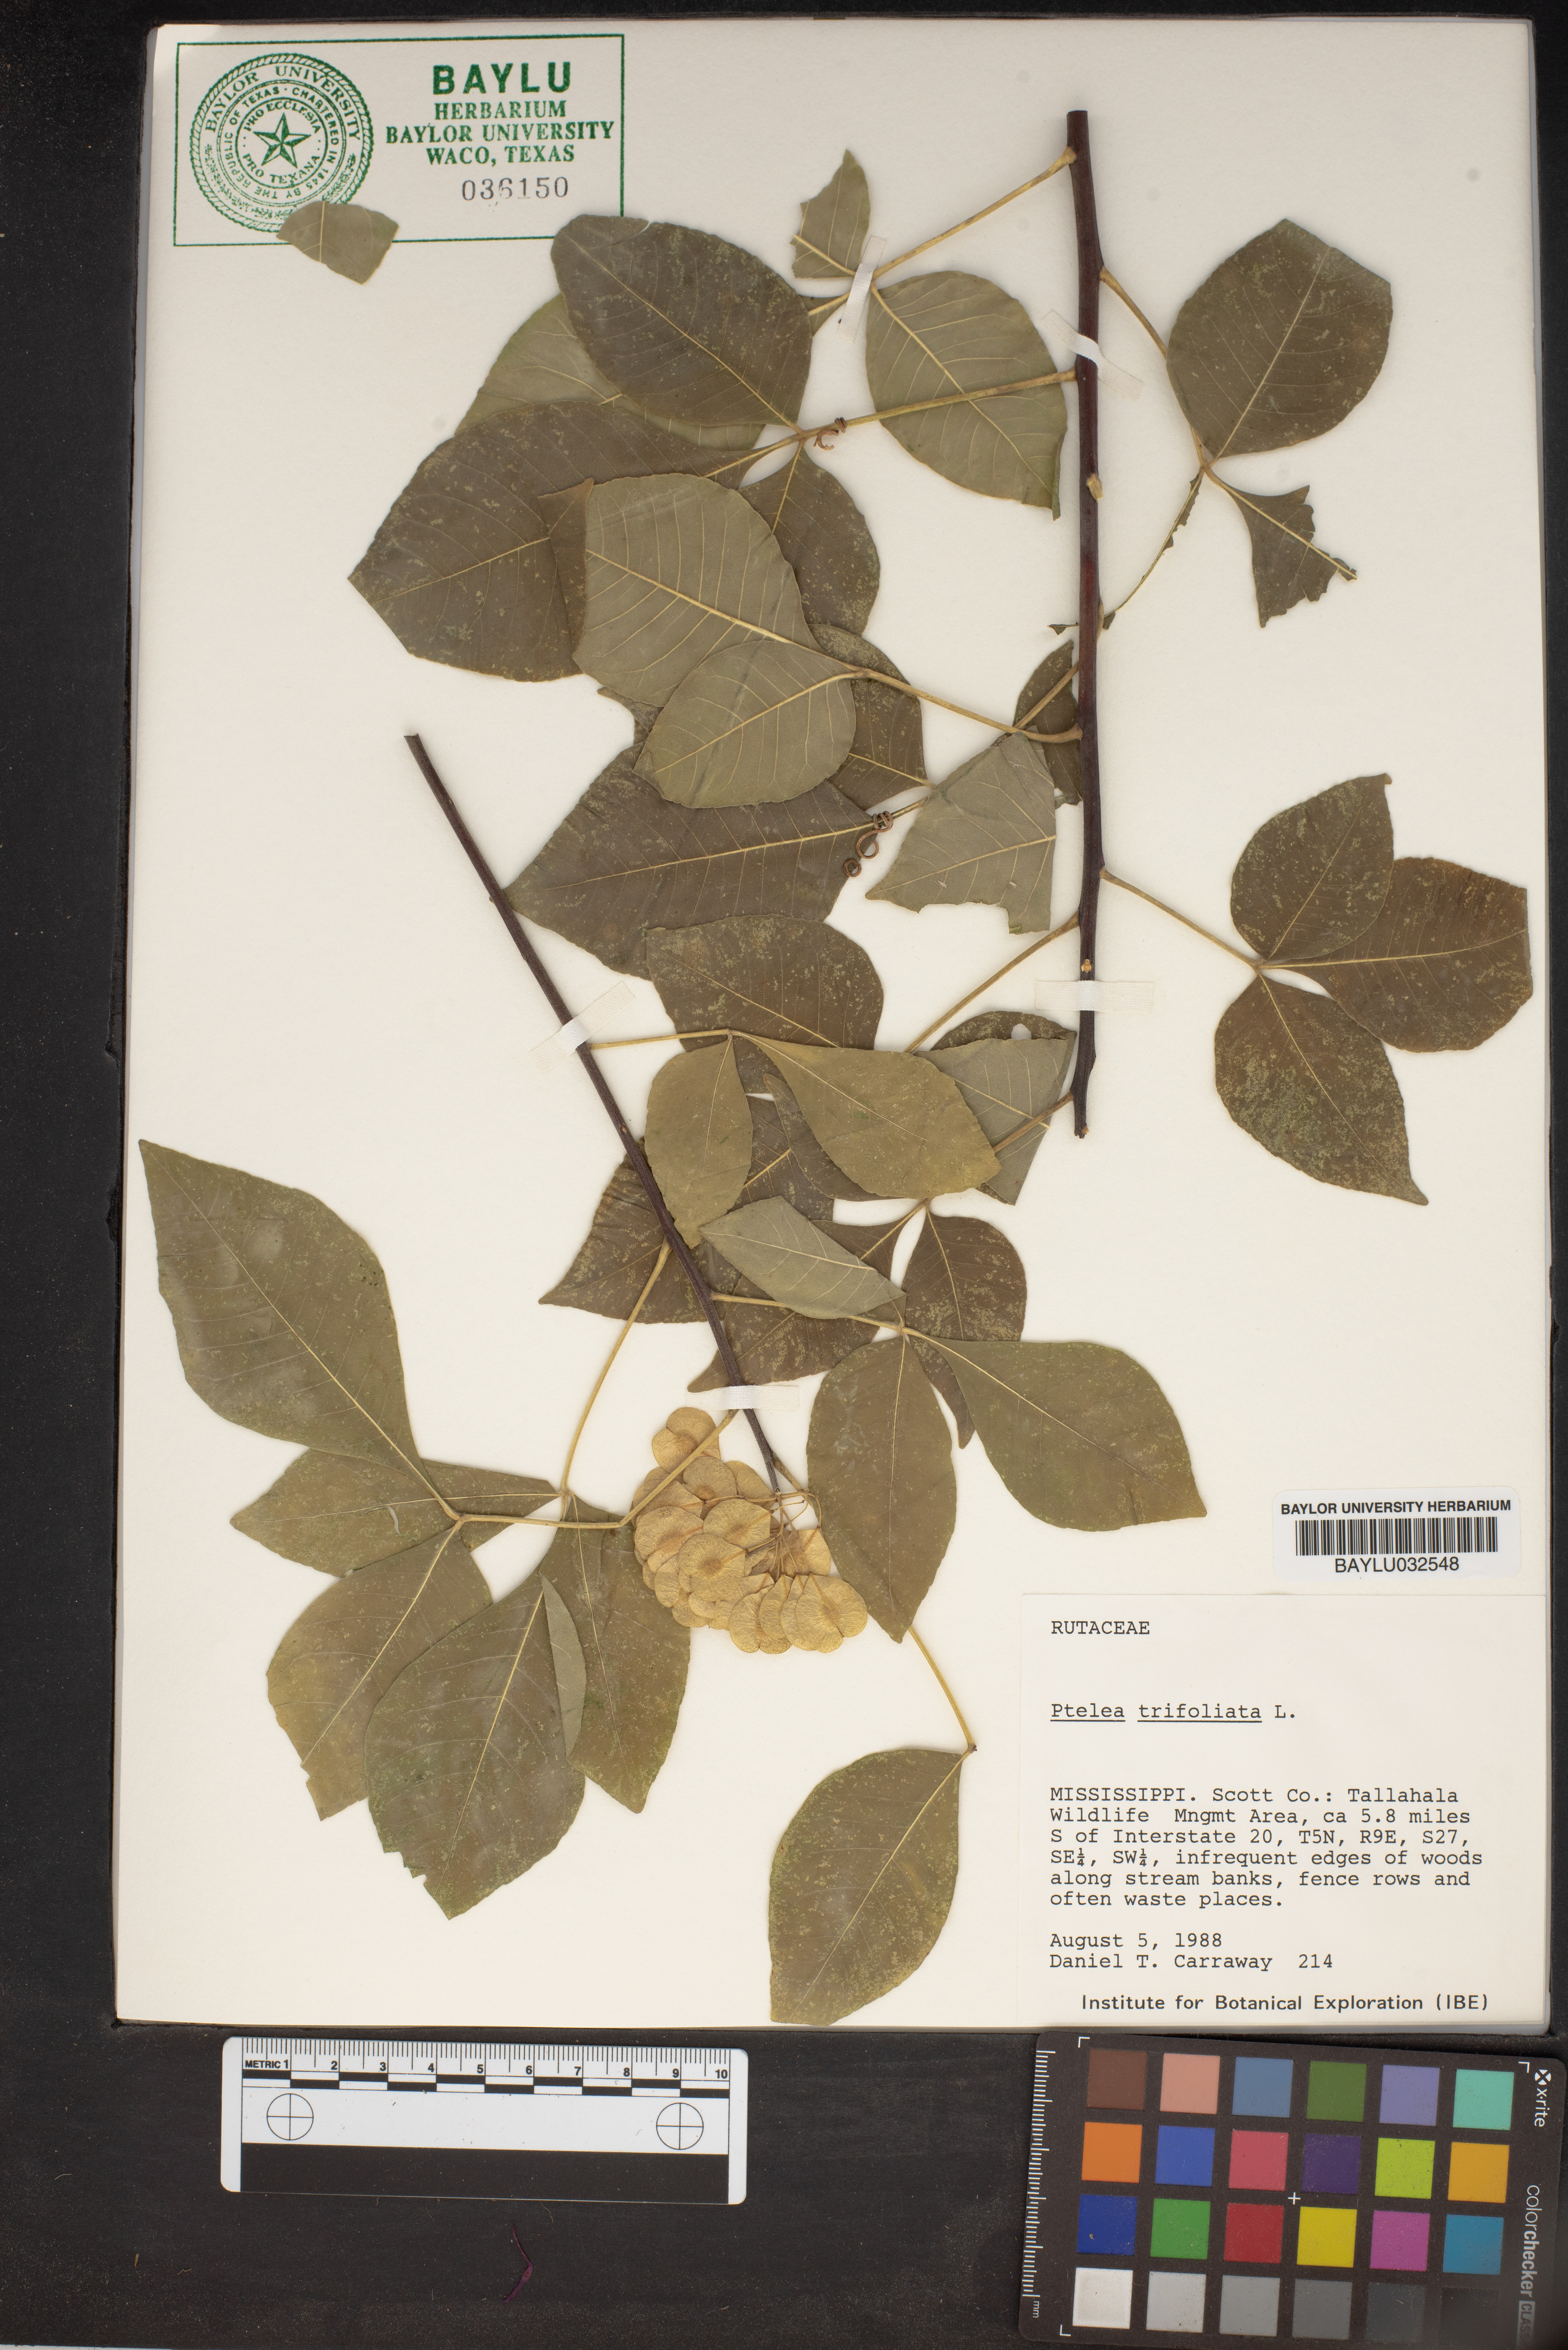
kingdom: Plantae
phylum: Tracheophyta
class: Magnoliopsida
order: Sapindales
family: Rutaceae
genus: Ptelea
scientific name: Ptelea trifoliata
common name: Common hop-tree
